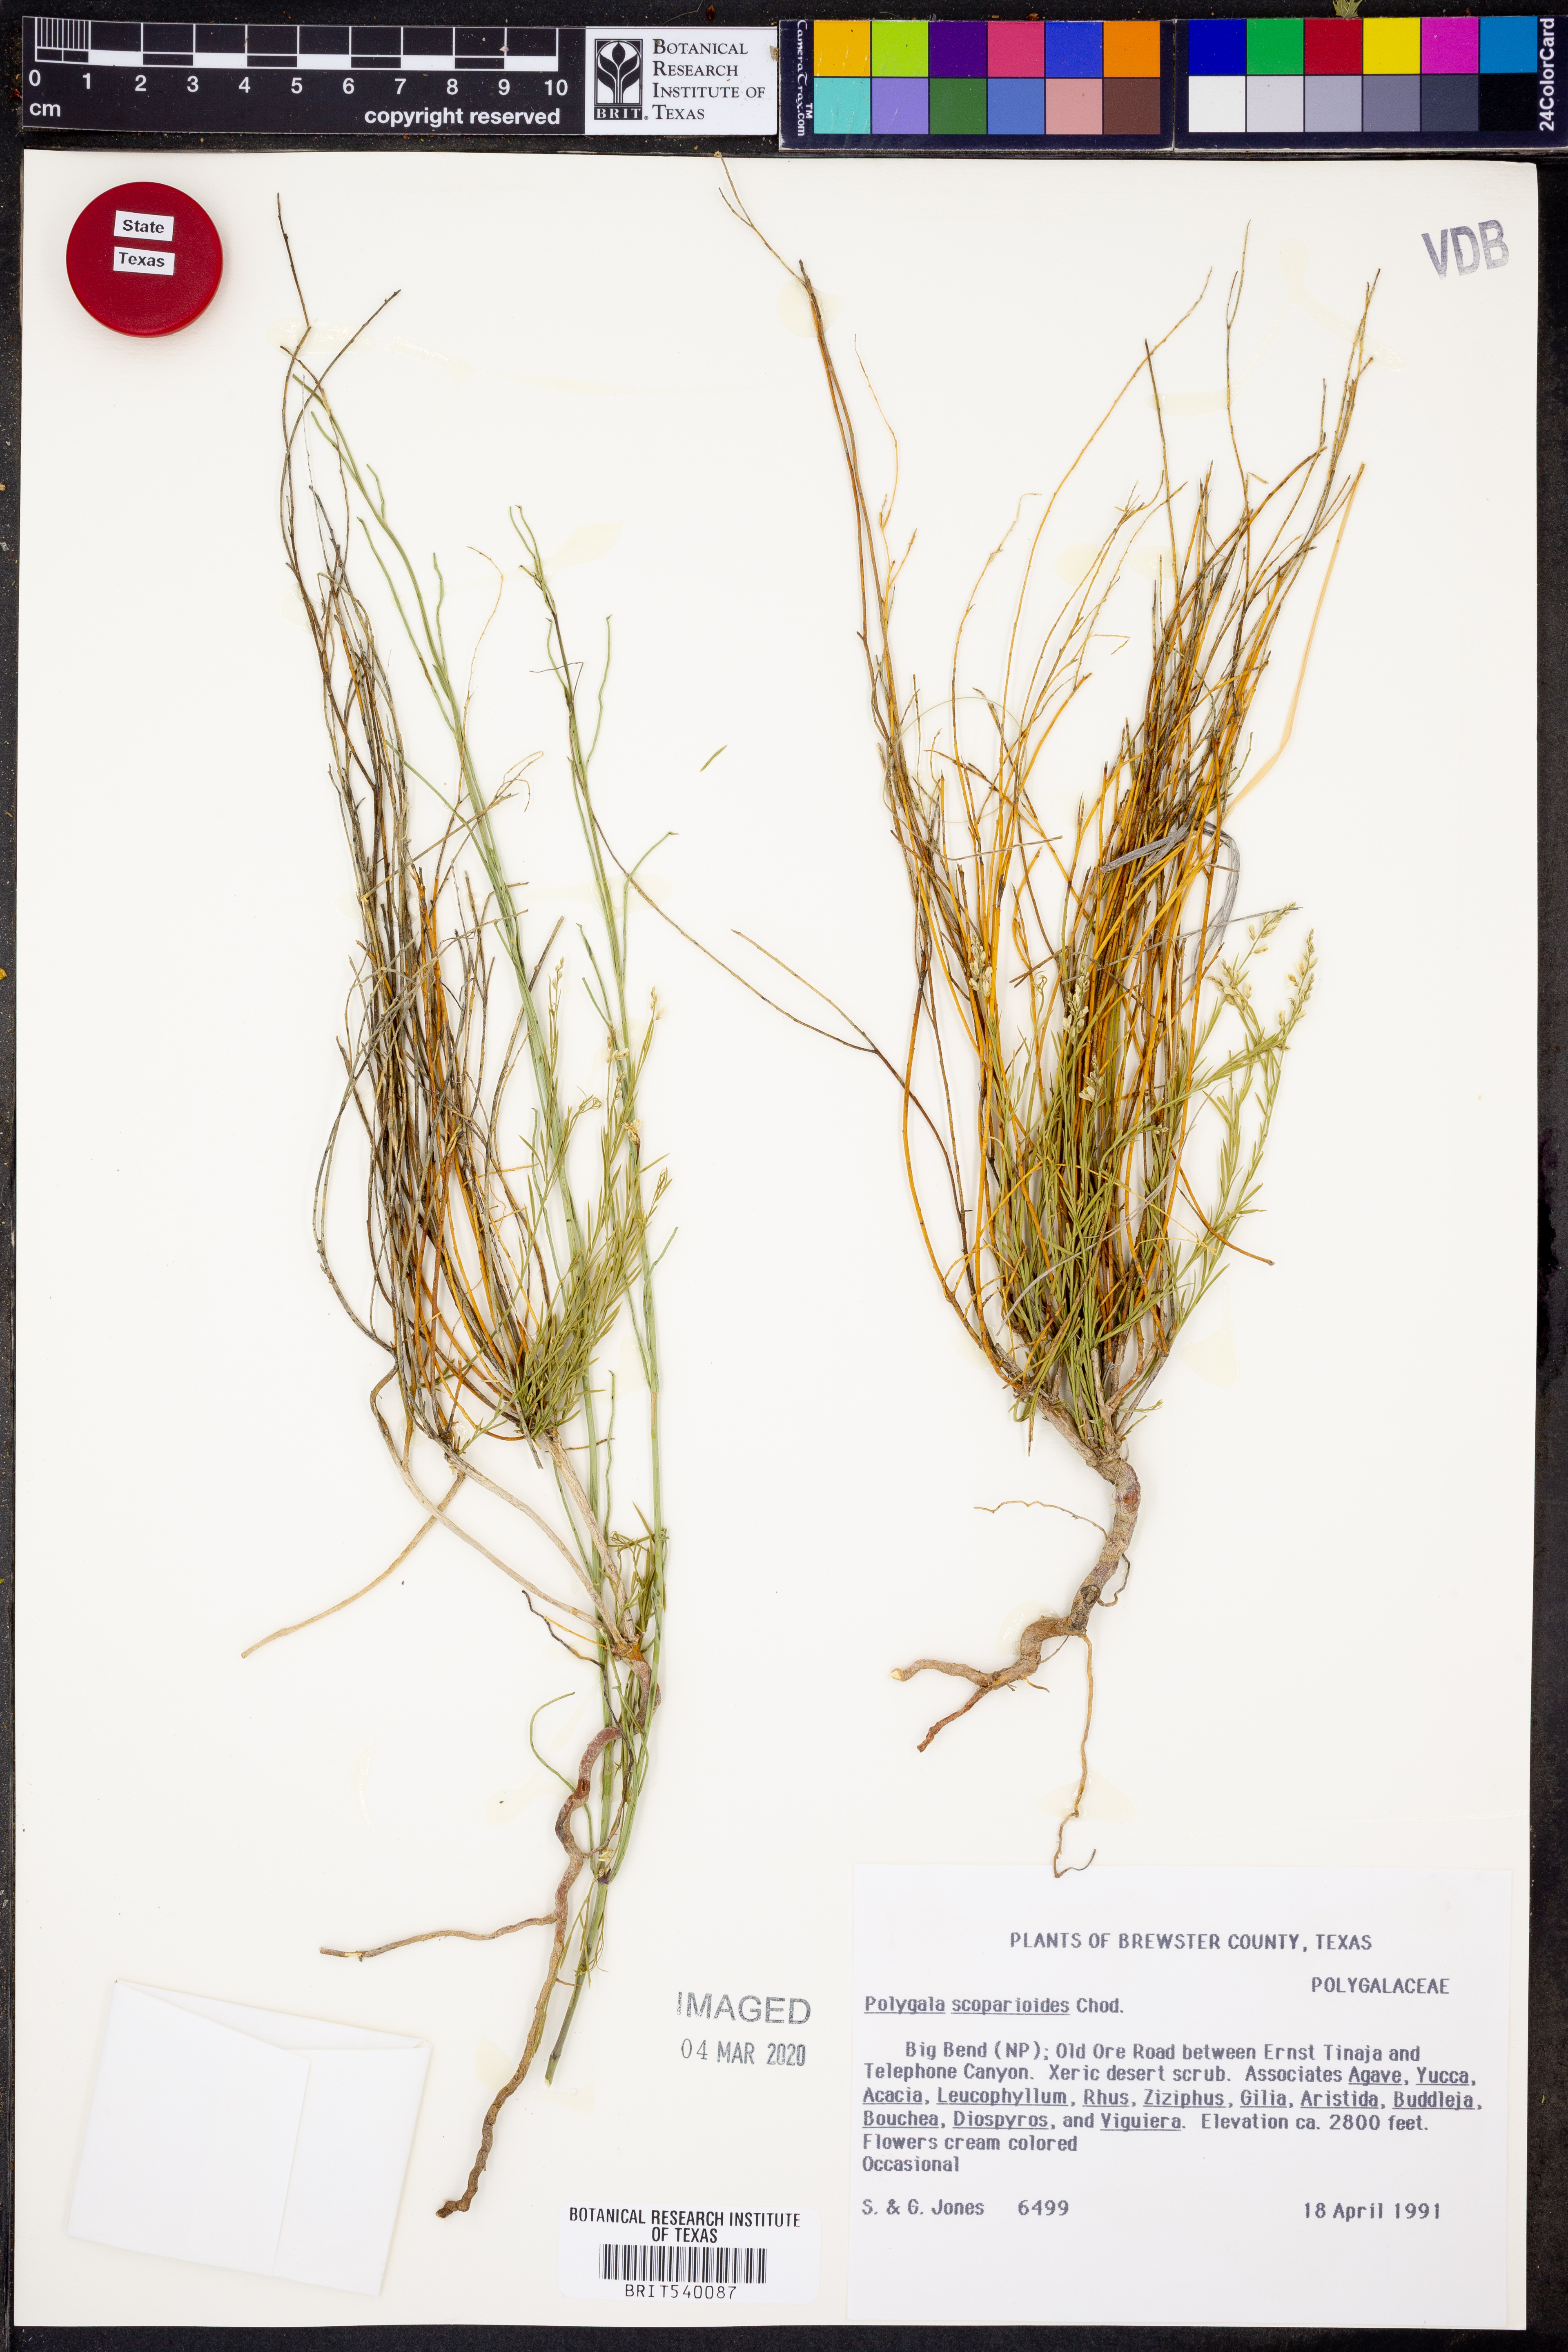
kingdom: Plantae
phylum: Tracheophyta
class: Magnoliopsida
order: Fabales
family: Polygalaceae
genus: Polygala
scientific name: Polygala scoparioides
